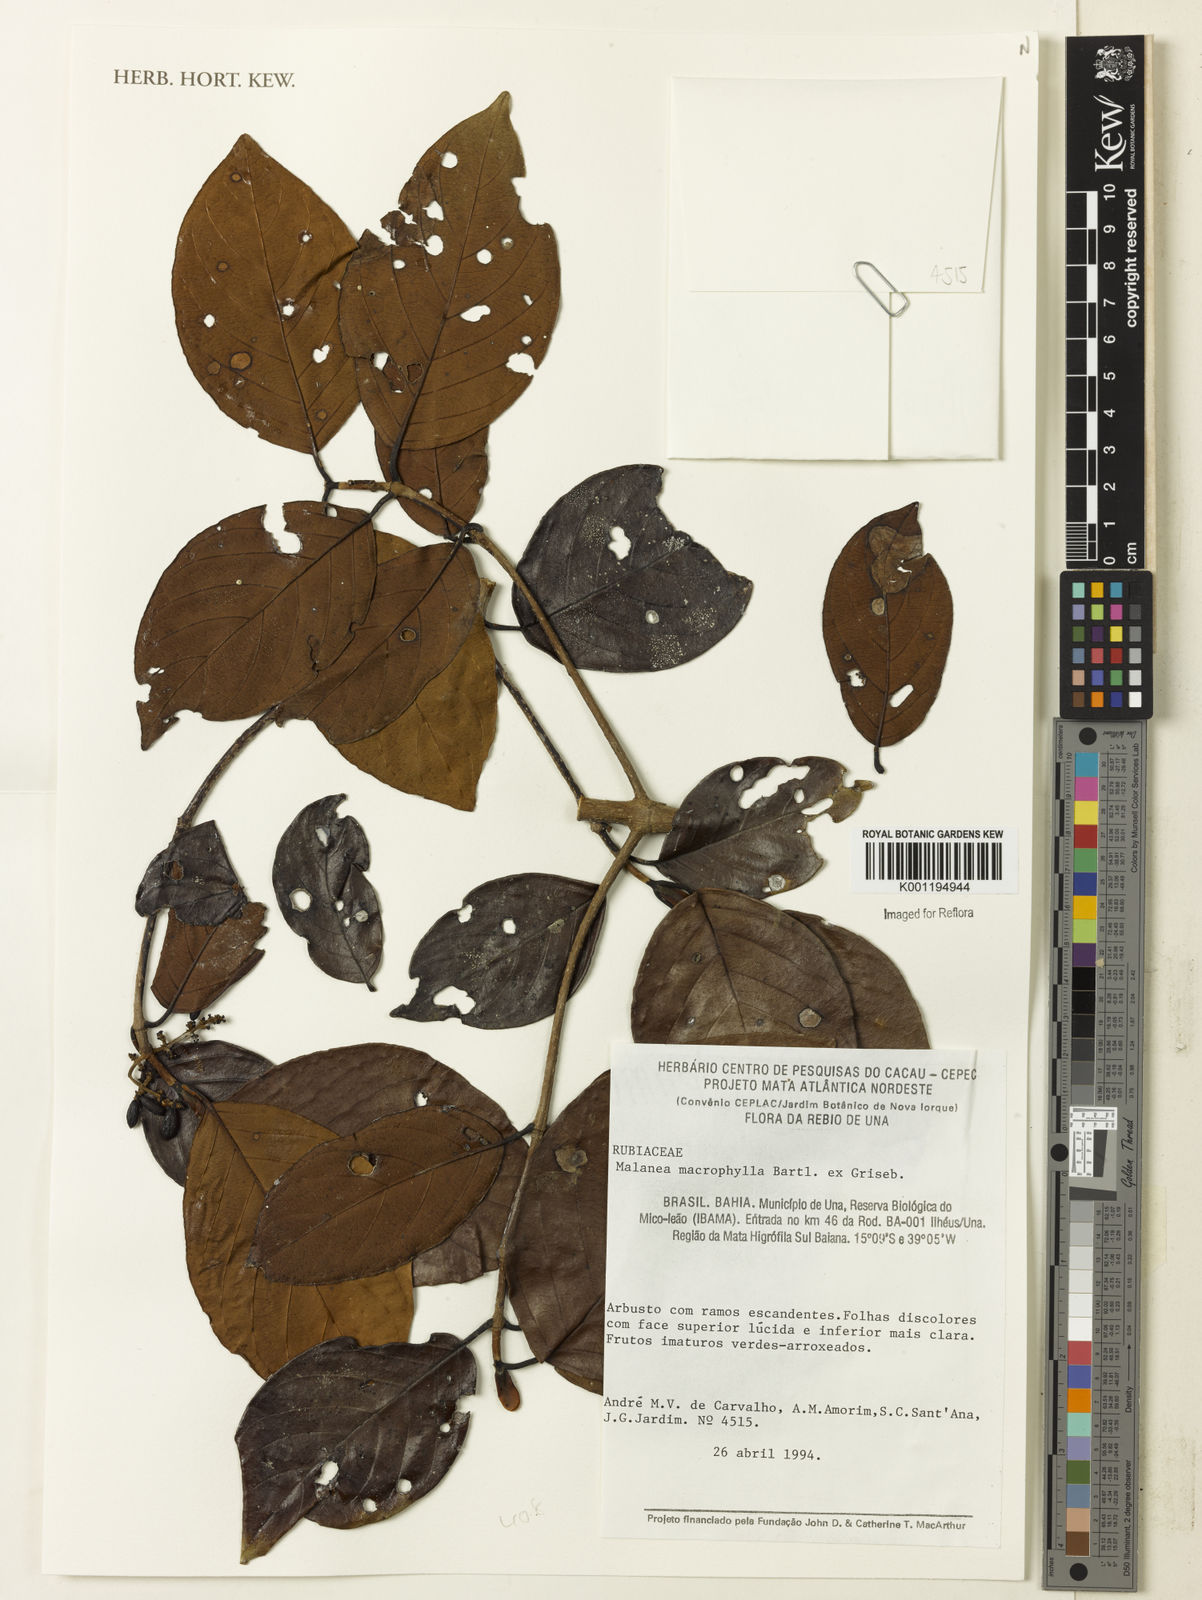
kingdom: Plantae
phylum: Tracheophyta
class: Magnoliopsida
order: Gentianales
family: Rubiaceae
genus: Malanea
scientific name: Malanea glabra
